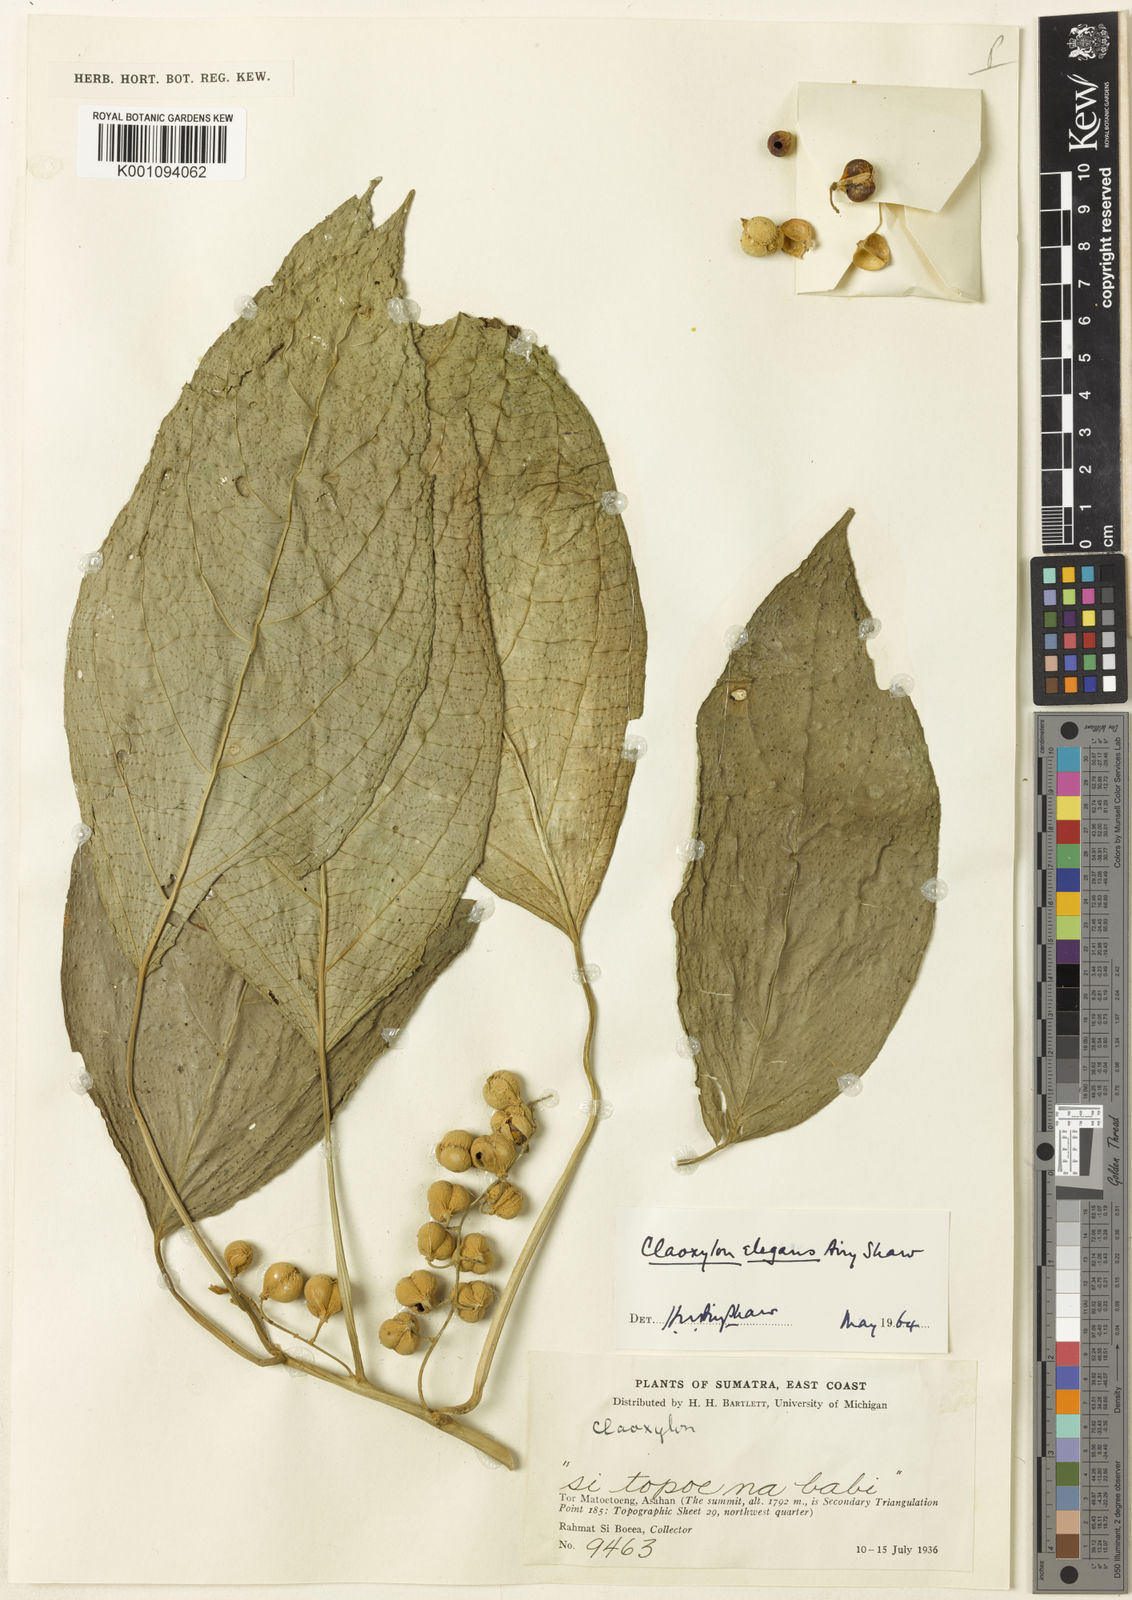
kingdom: Plantae
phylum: Tracheophyta
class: Magnoliopsida
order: Malpighiales
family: Euphorbiaceae
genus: Claoxylon
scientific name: Claoxylon longifolium
